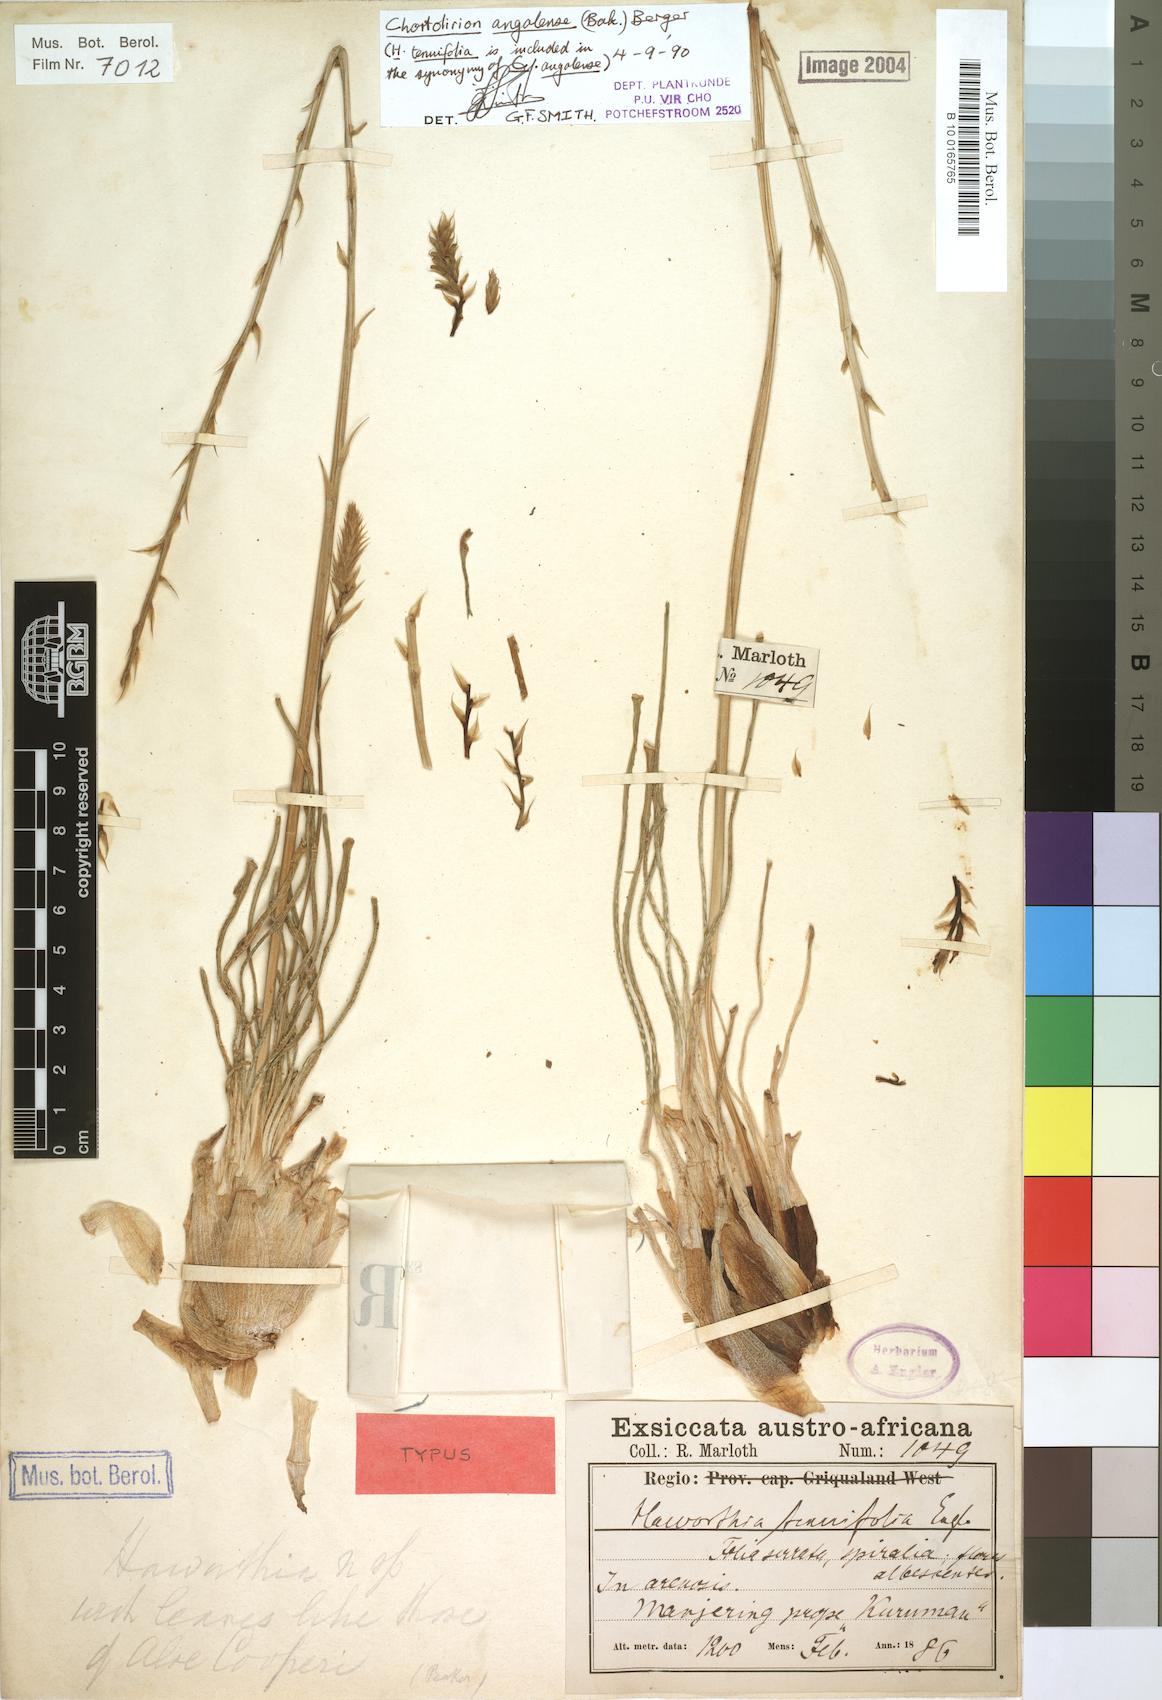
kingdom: Plantae
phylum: Tracheophyta
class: Liliopsida
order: Asparagales
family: Asphodelaceae
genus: Aloe
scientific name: Aloe welwitschii
